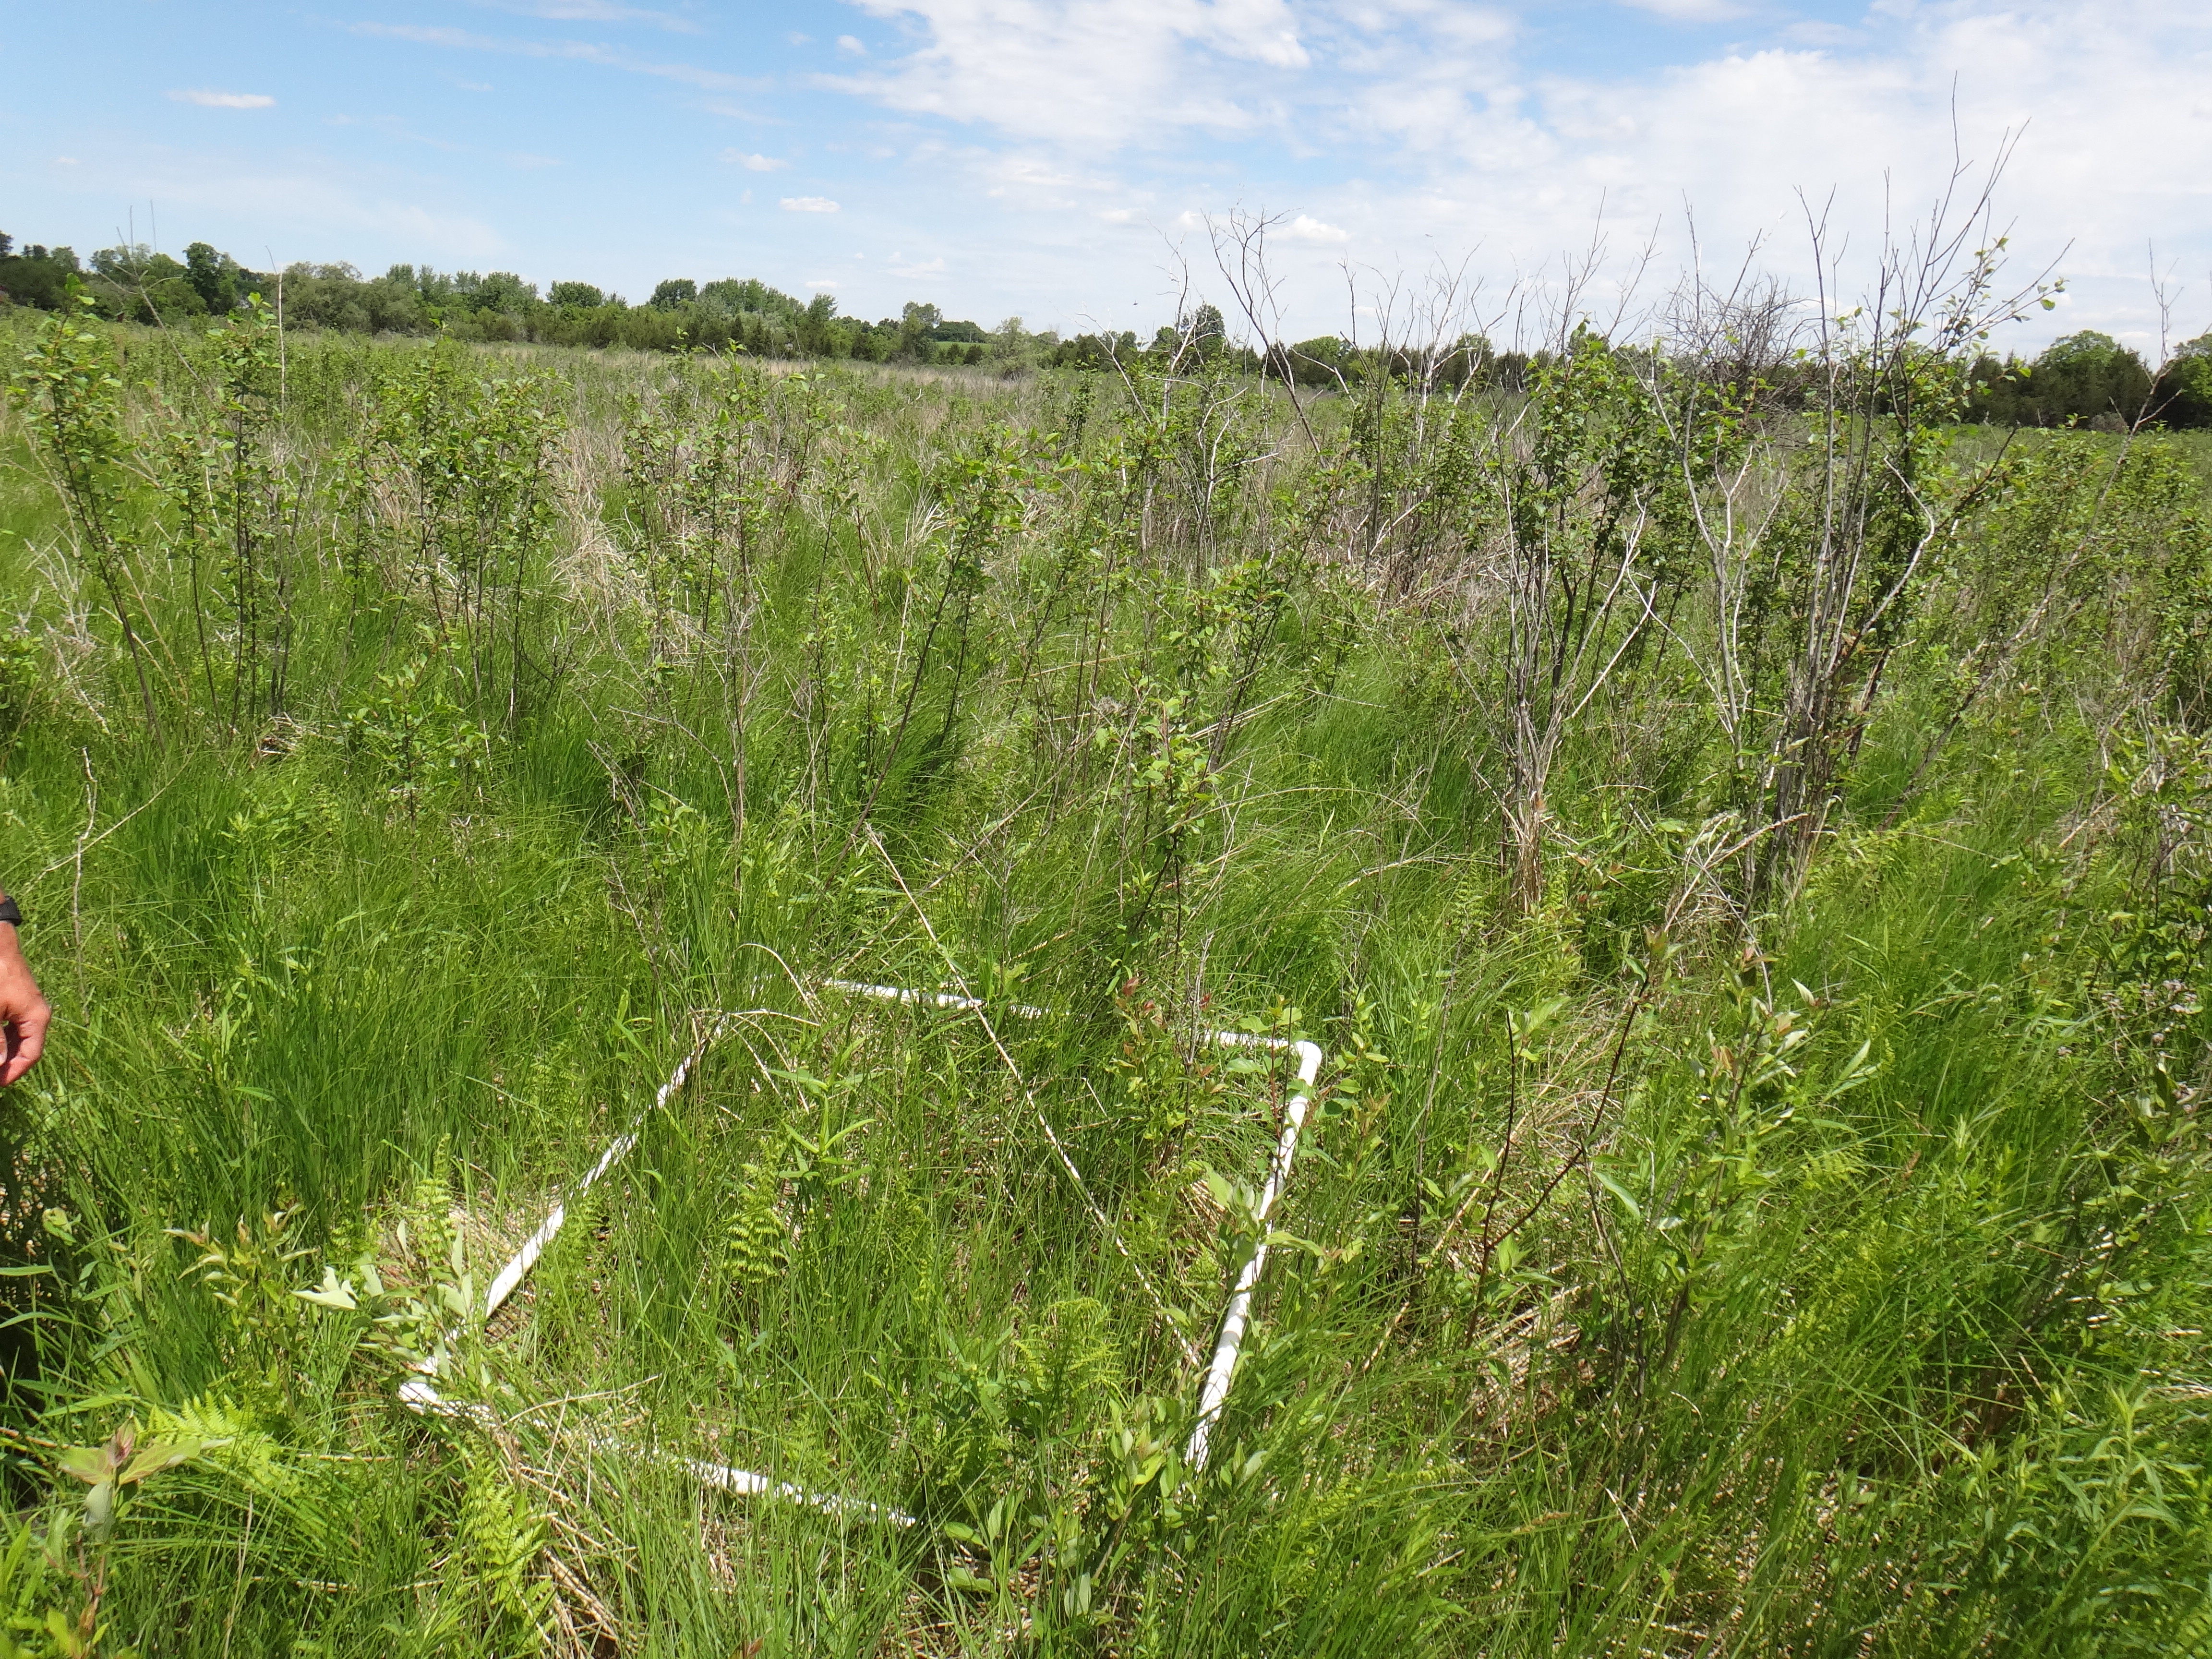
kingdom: Plantae
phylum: Tracheophyta
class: Liliopsida
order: Poales
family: Cyperaceae
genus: Carex
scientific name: Carex lasiocarpa
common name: Slender sedge
